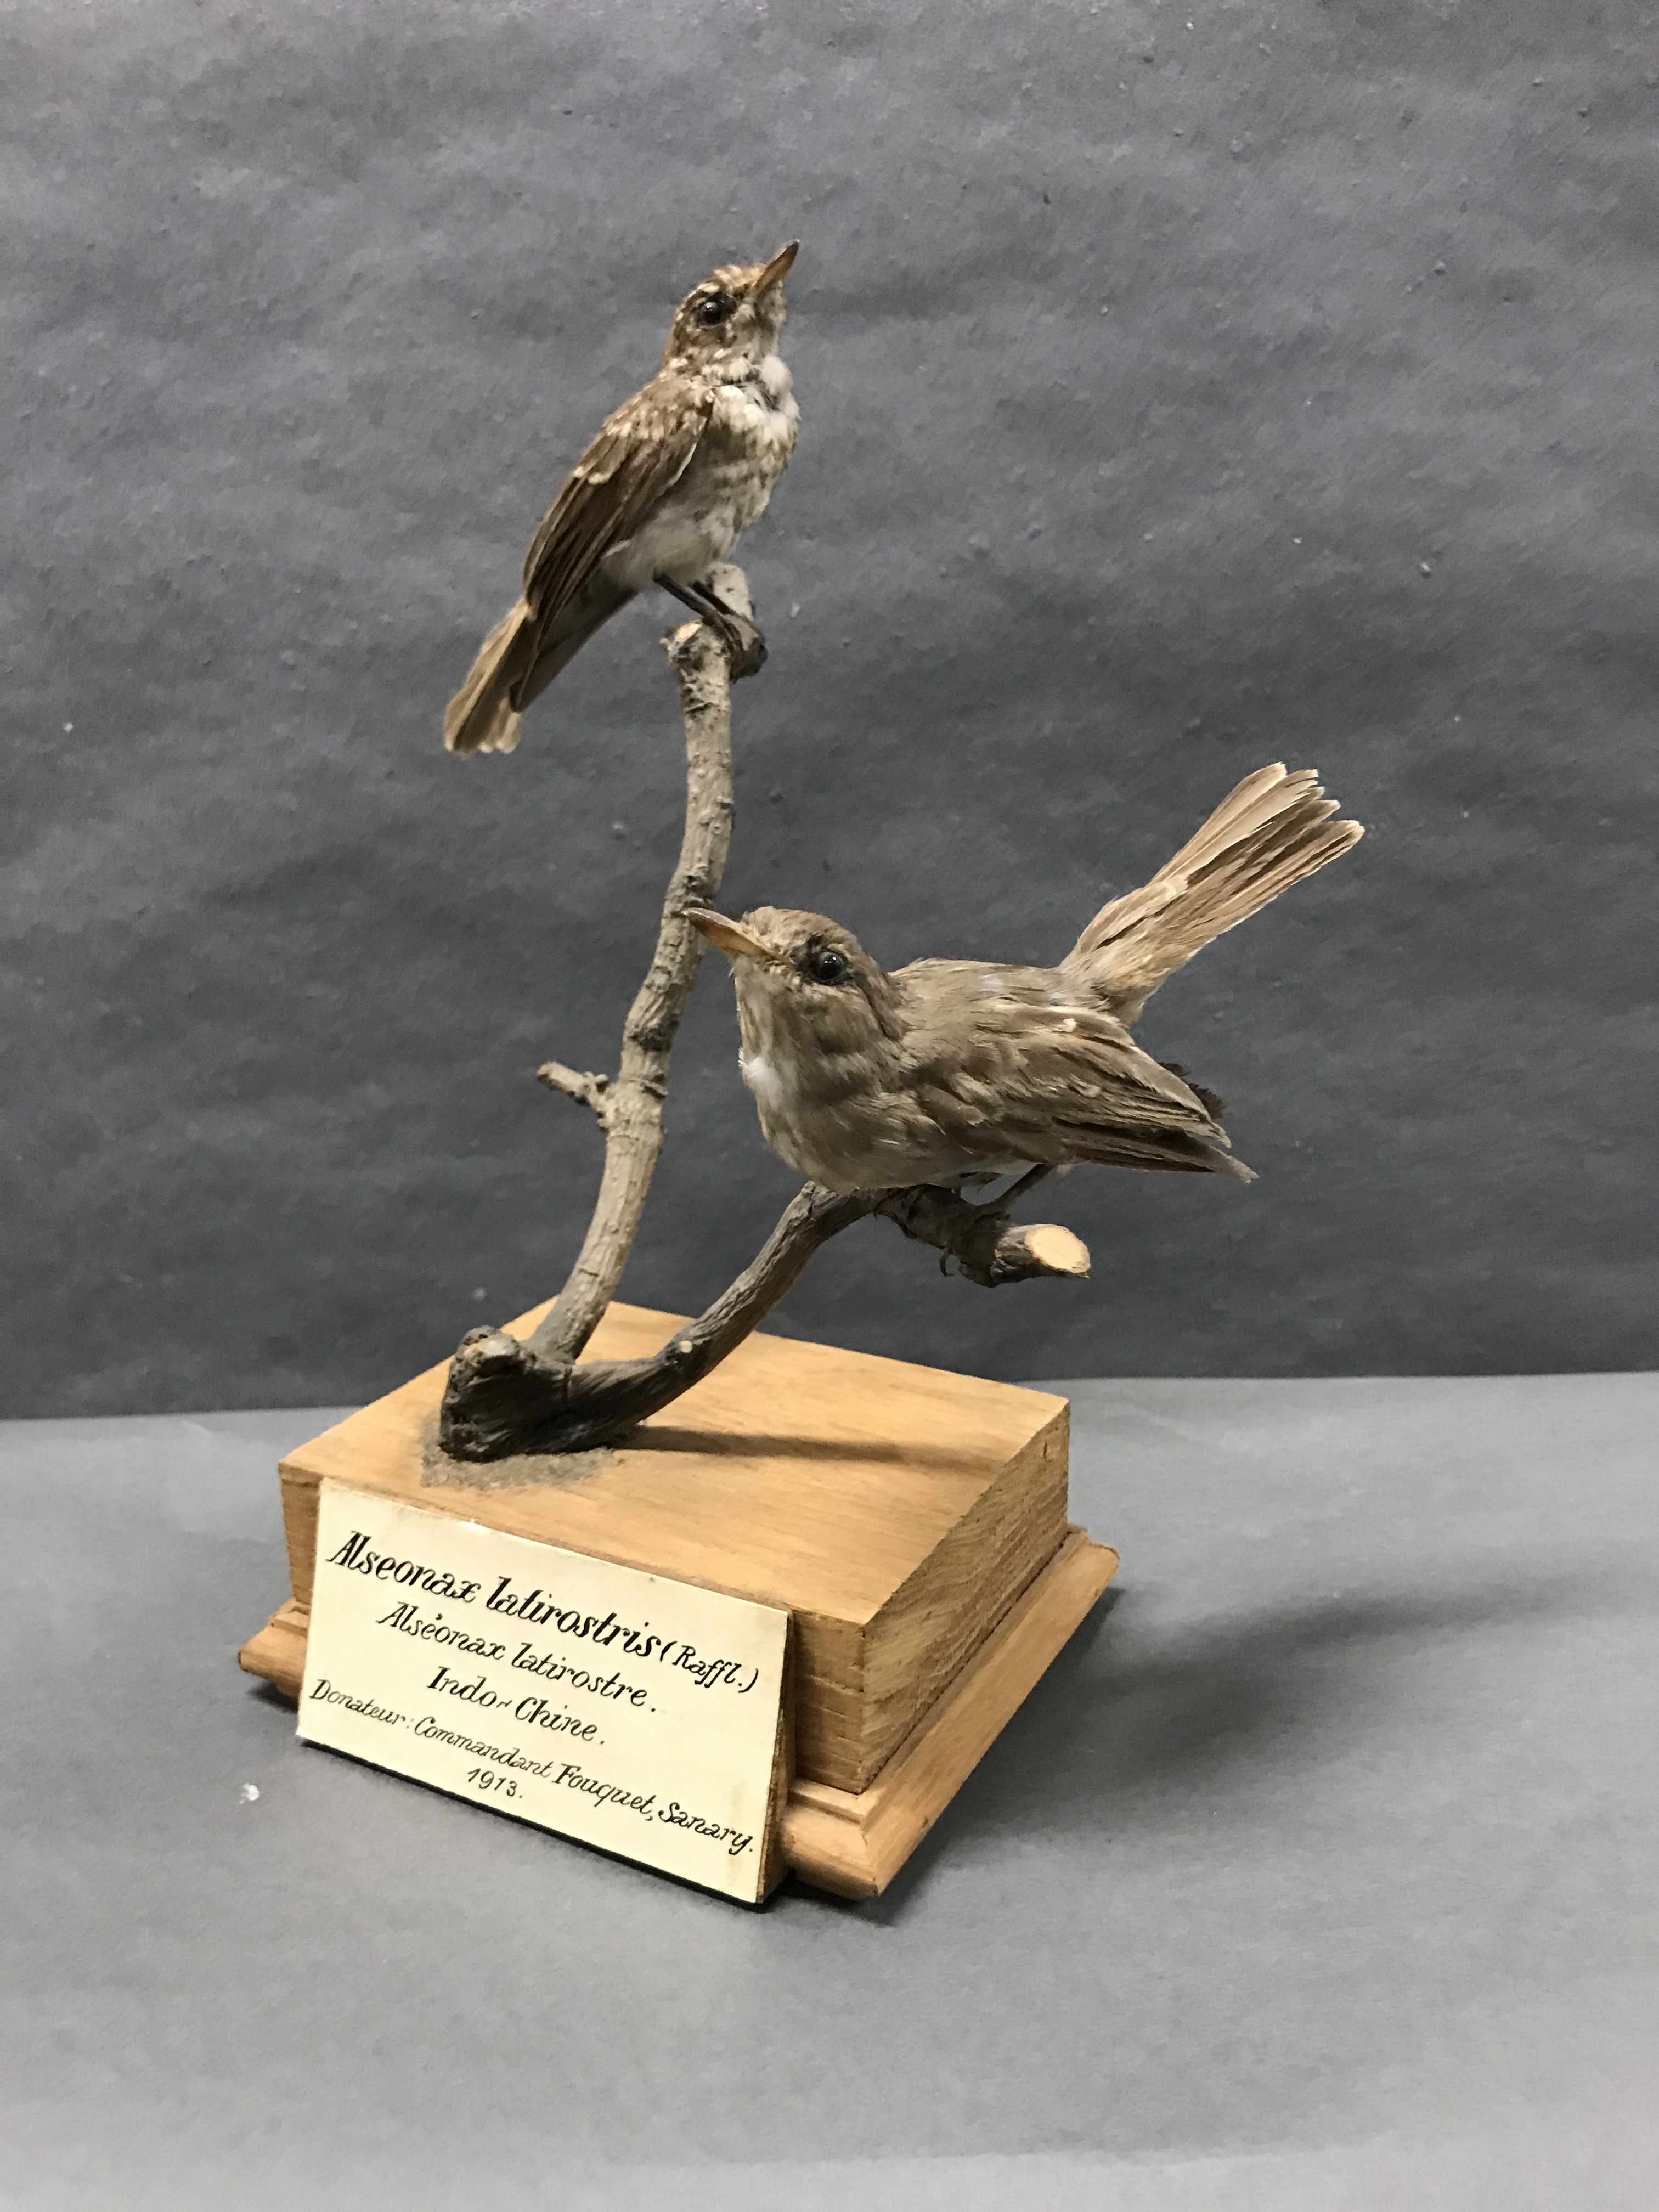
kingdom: Animalia
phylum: Chordata
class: Aves
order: Passeriformes
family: Muscicapidae
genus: Muscicapa
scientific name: Muscicapa latirostris
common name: Asian brown flycatcher
